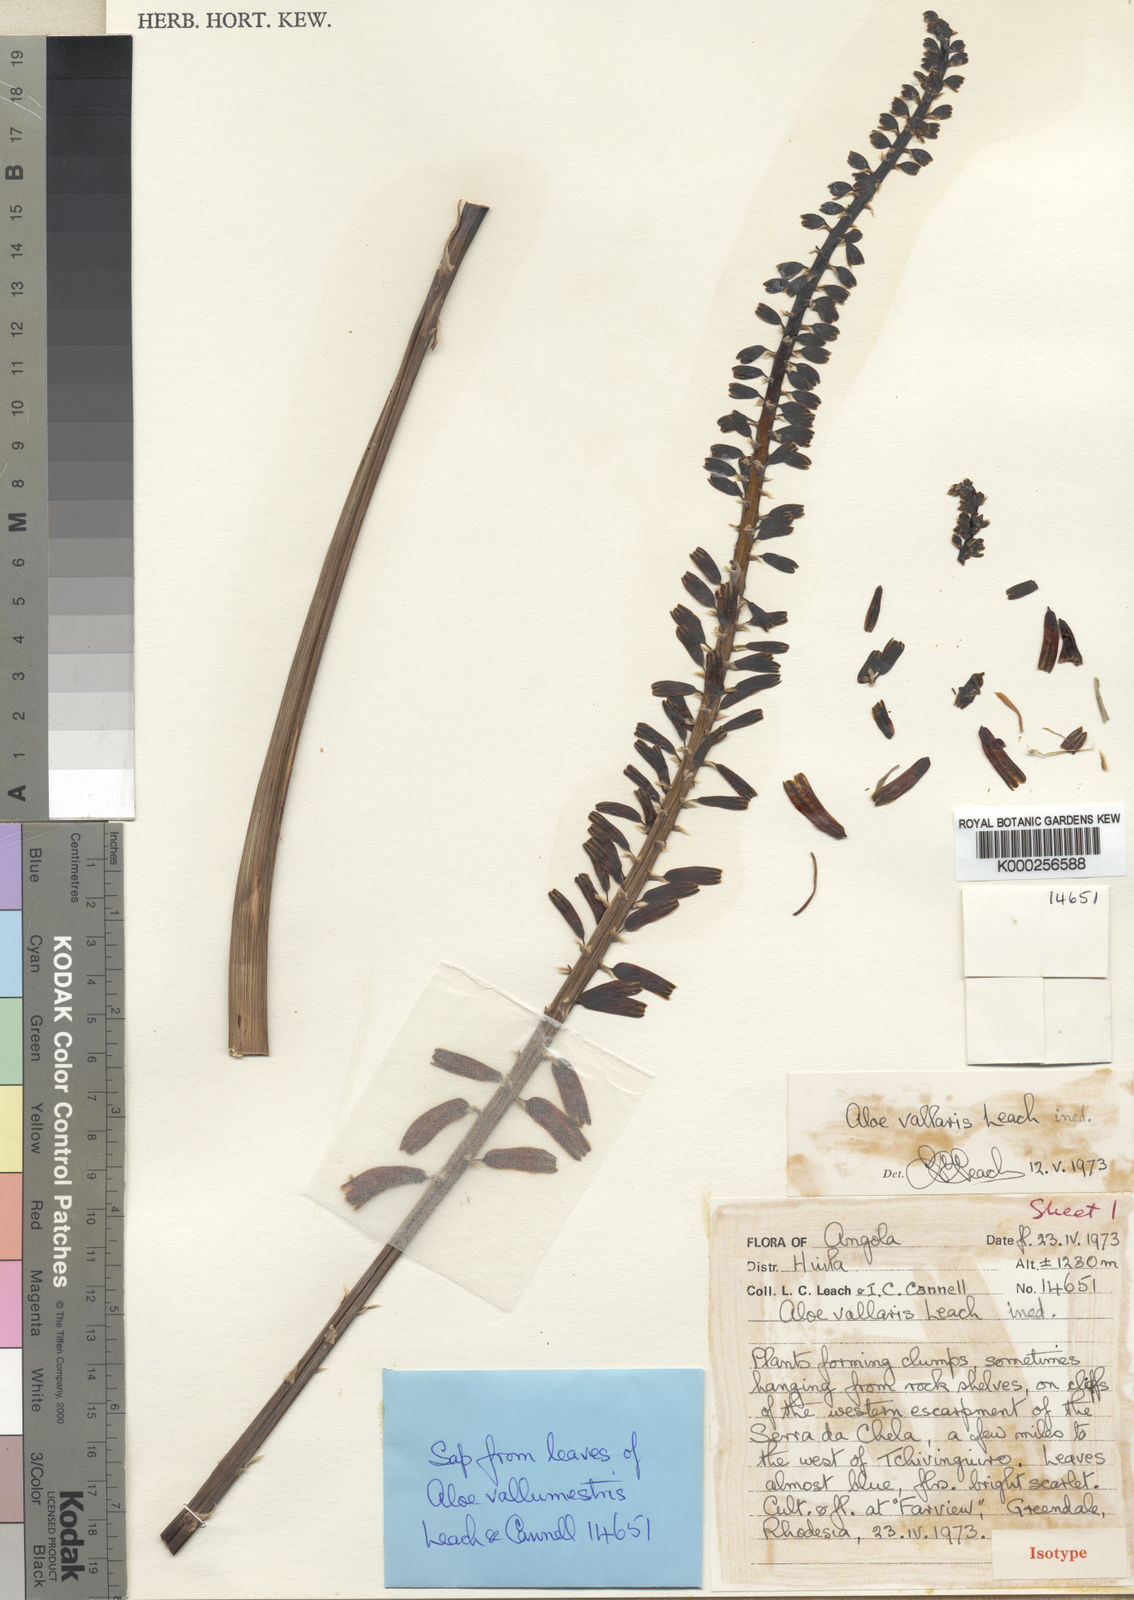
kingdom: Plantae
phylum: Tracheophyta
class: Liliopsida
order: Asparagales
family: Asphodelaceae
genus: Aloe
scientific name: Aloe vallaris
